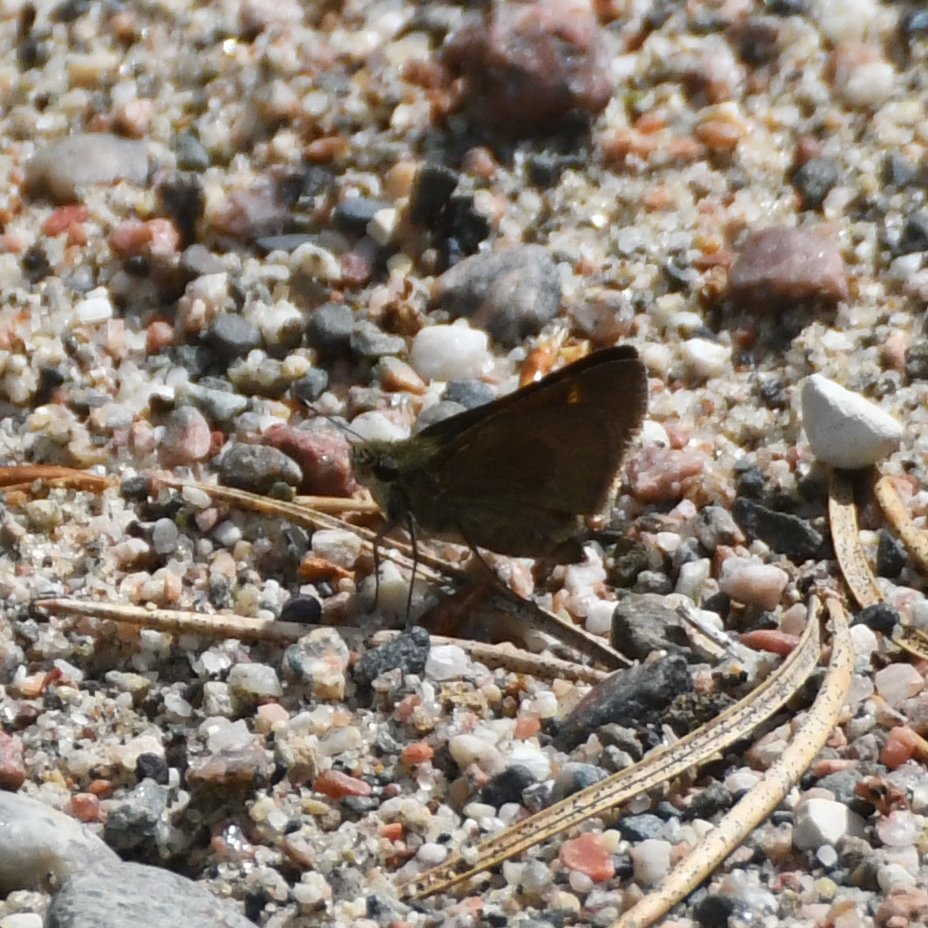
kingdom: Animalia
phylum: Arthropoda
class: Insecta
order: Lepidoptera
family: Hesperiidae
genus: Polites
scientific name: Polites themistocles
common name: Tawny-edged Skipper
